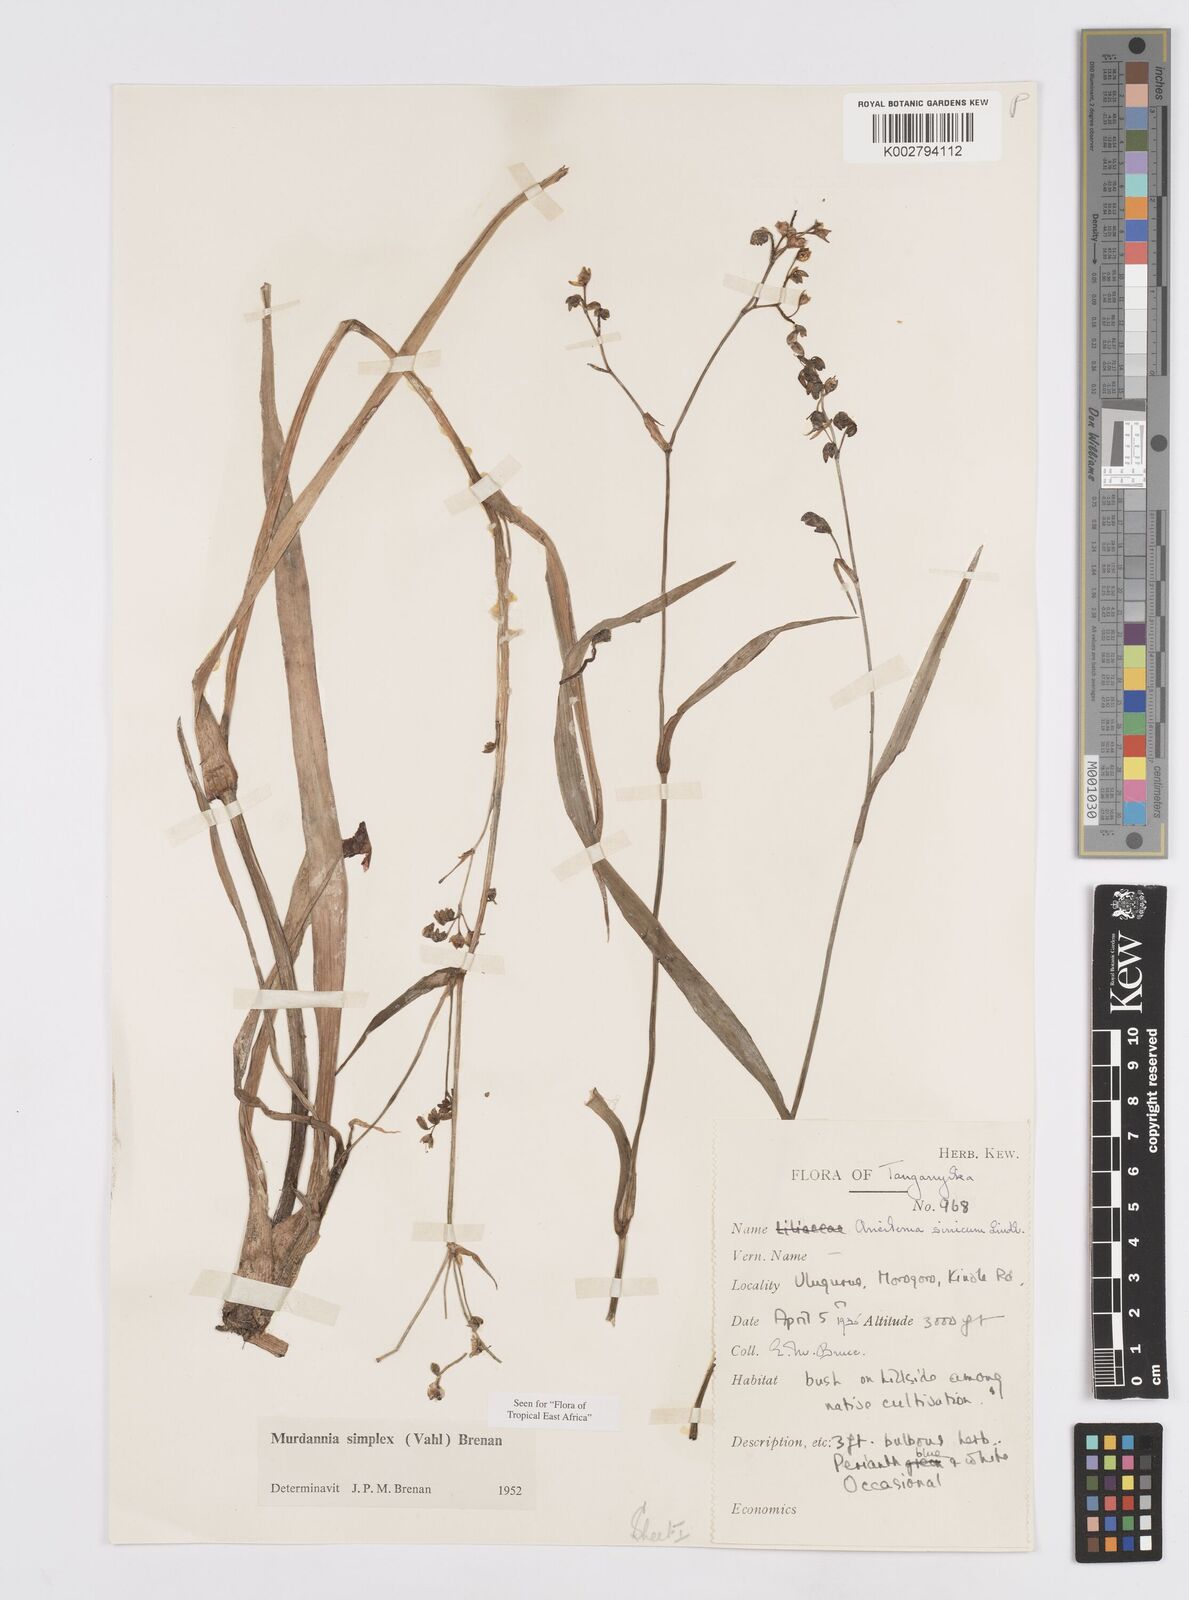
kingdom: Plantae
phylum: Tracheophyta
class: Liliopsida
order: Commelinales
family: Commelinaceae
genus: Murdannia
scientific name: Murdannia simplex
